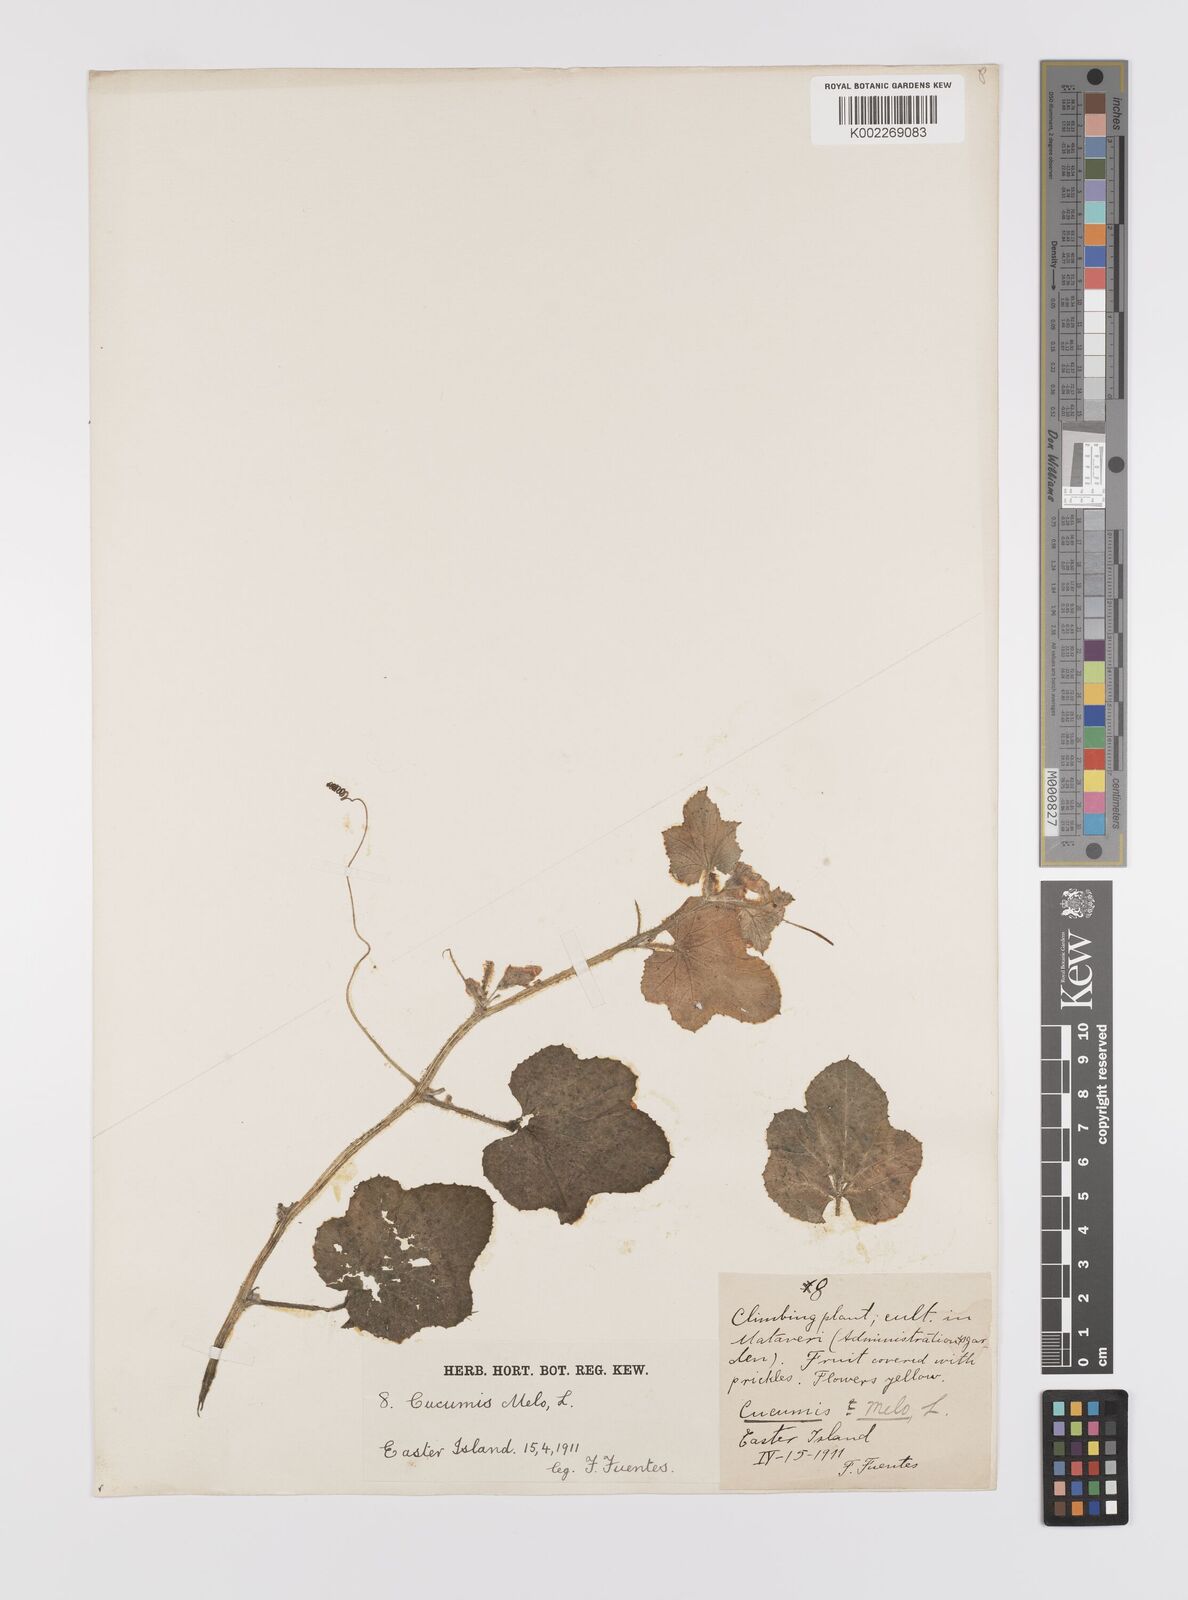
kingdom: Plantae
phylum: Tracheophyta
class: Magnoliopsida
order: Cucurbitales
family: Cucurbitaceae
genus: Cucumis
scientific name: Cucumis melo
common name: Melon
